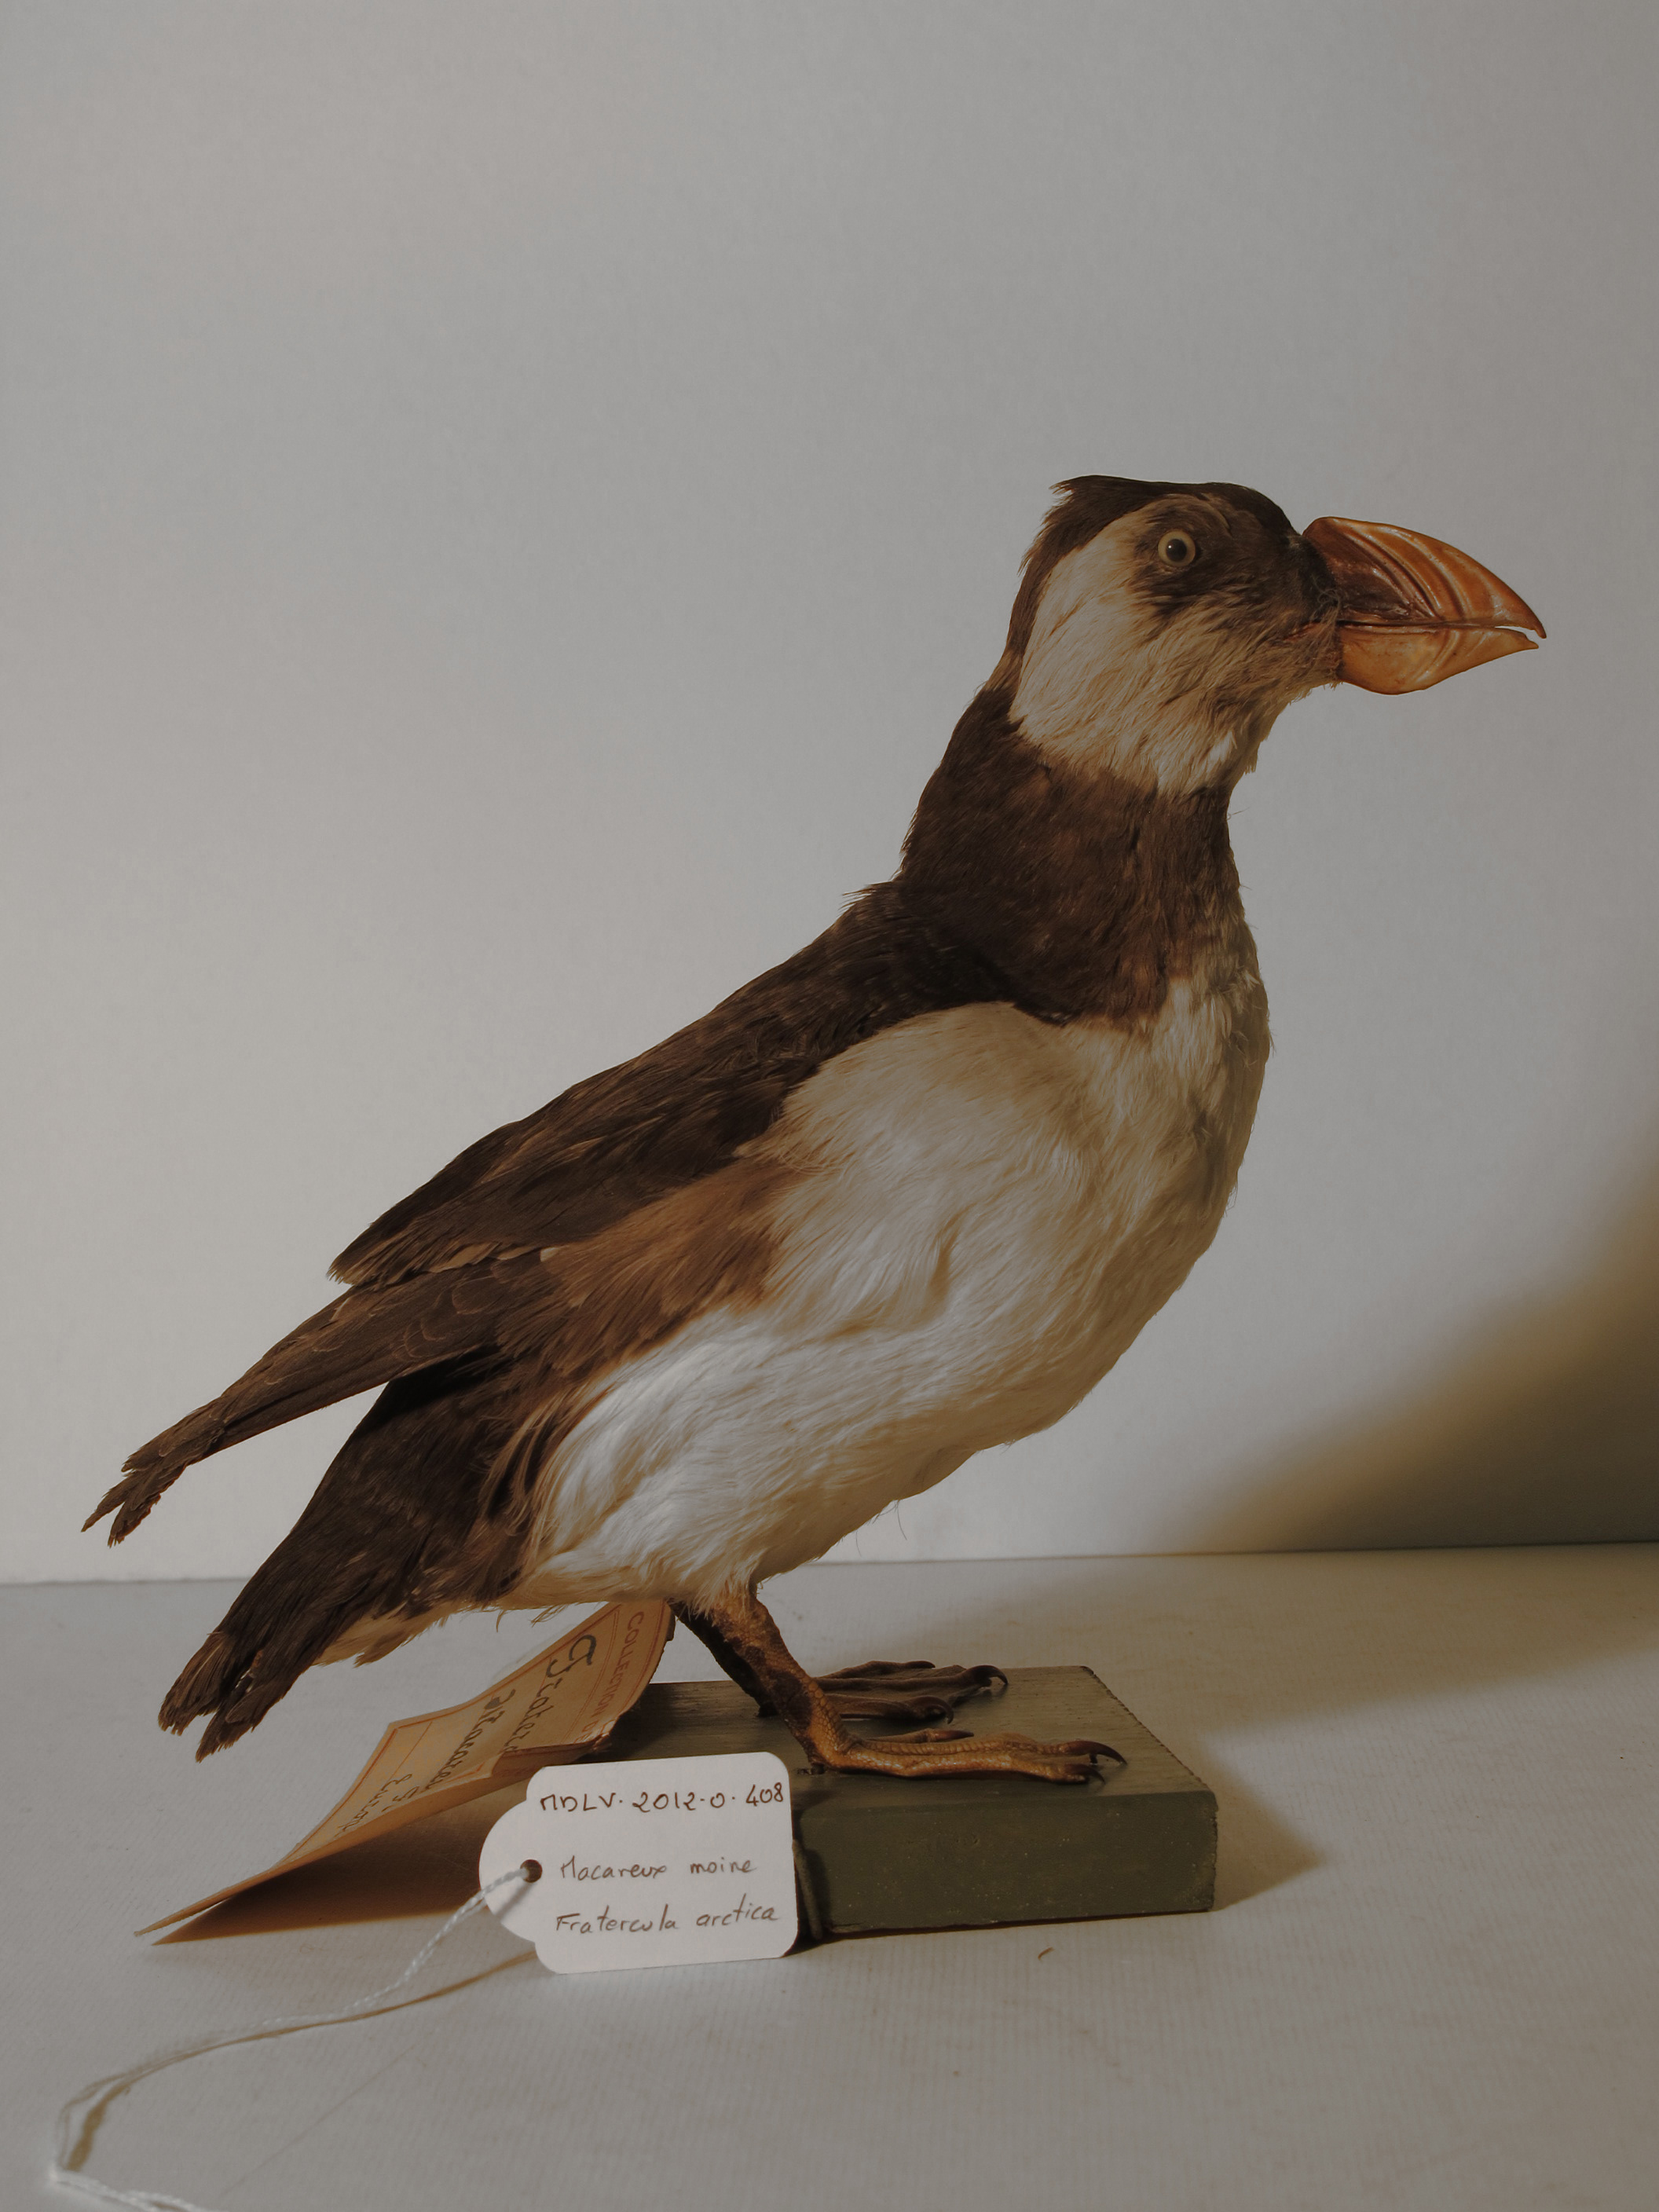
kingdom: Animalia
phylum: Chordata
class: Aves
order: Charadriiformes
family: Alcidae
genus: Fratercula
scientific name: Fratercula arctica
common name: Atlantic Puffin
